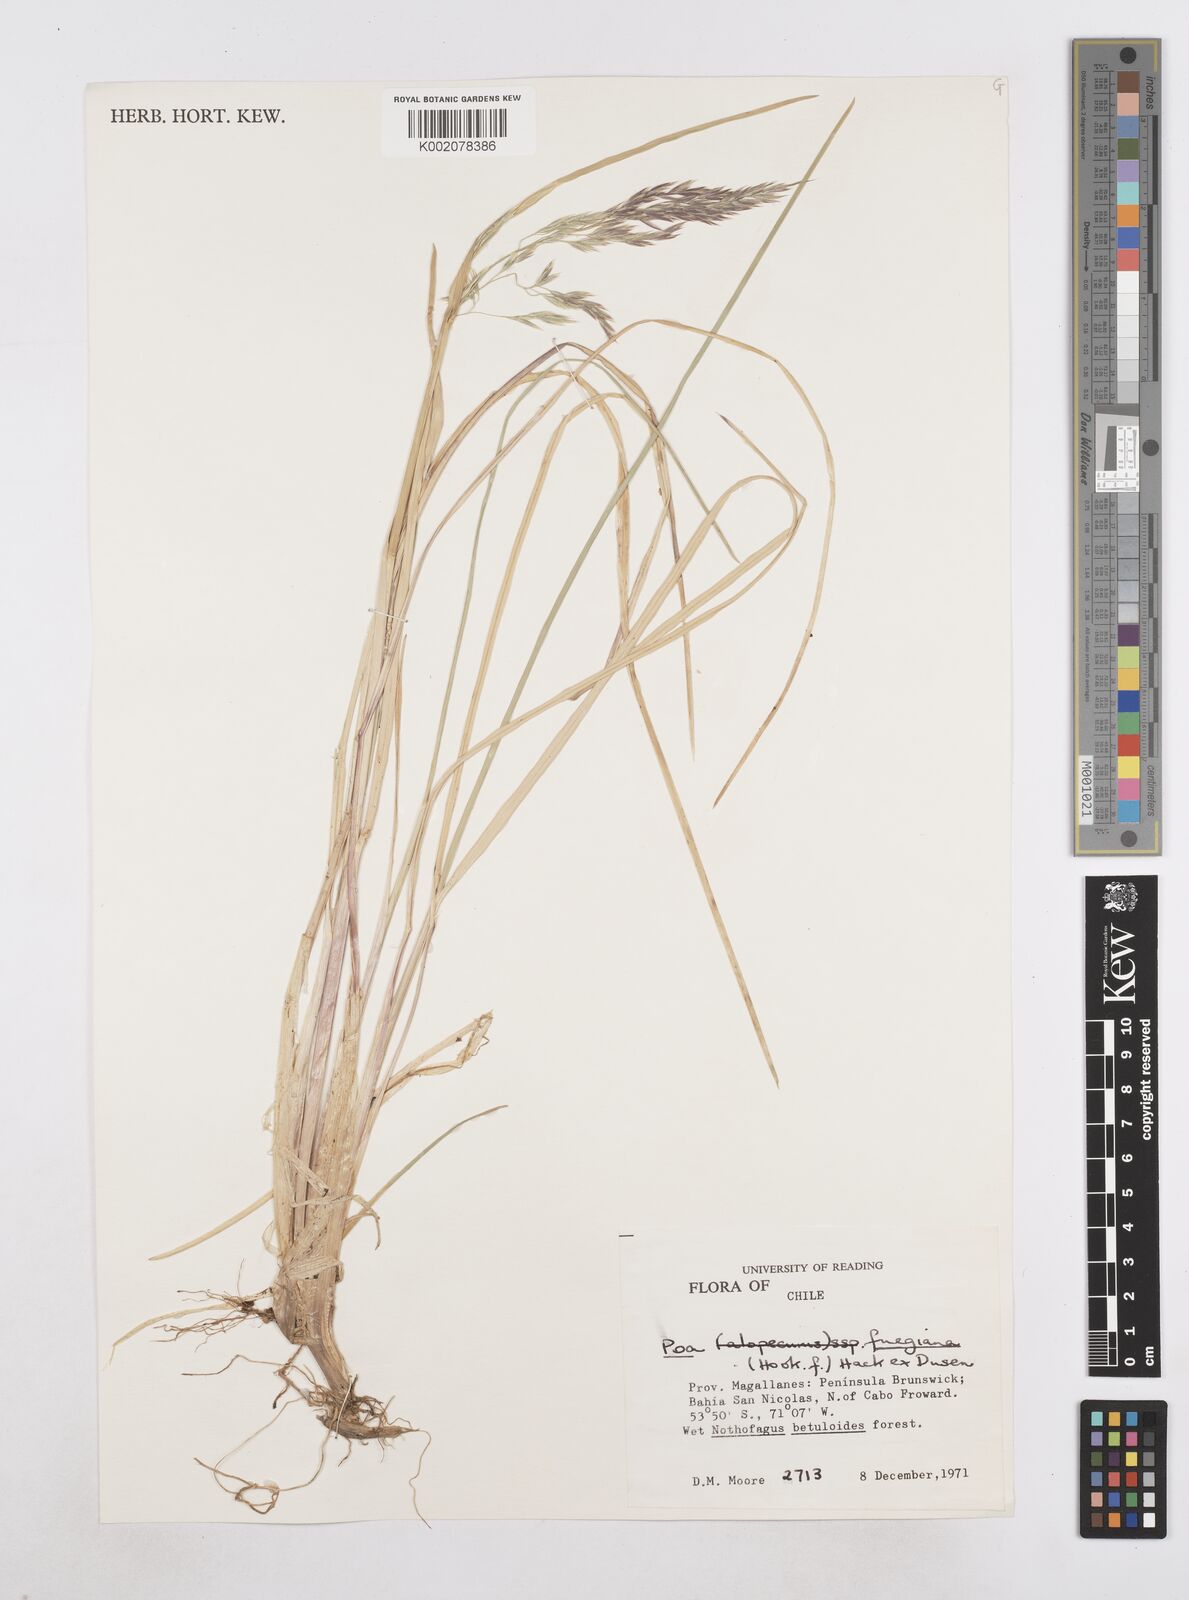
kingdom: Plantae
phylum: Tracheophyta
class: Liliopsida
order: Poales
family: Poaceae
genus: Poa
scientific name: Poa alopecurus
